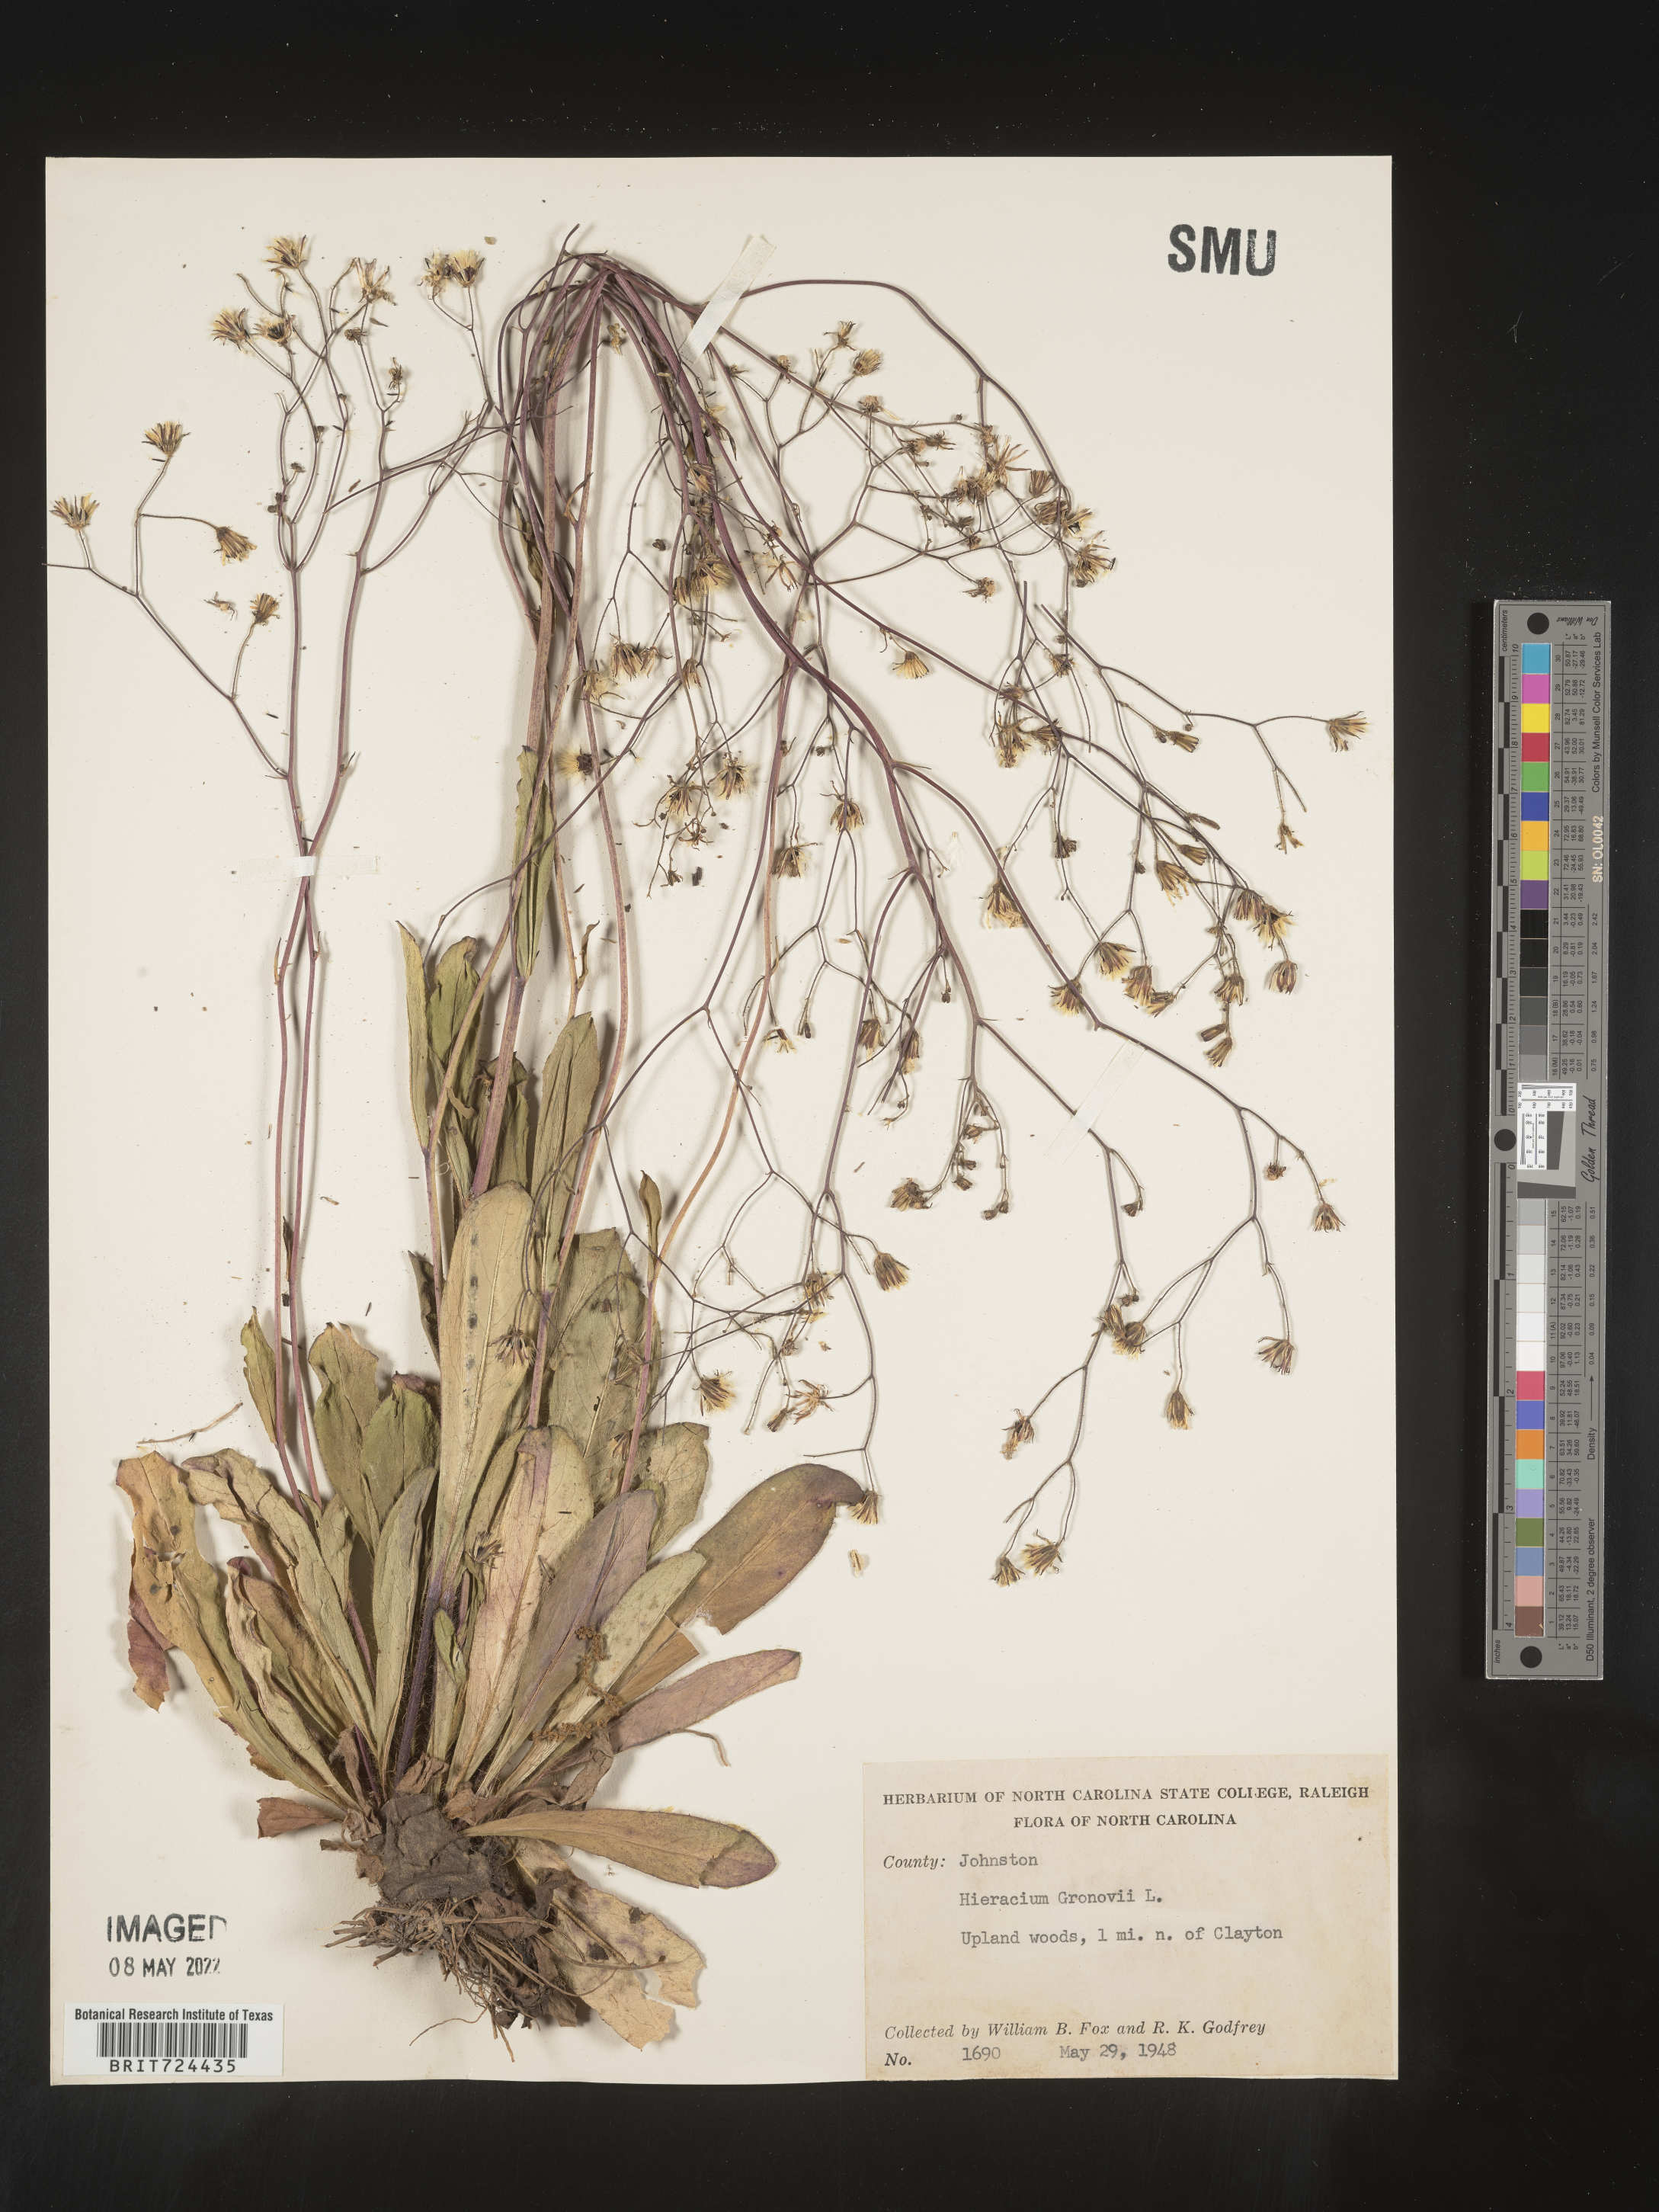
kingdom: Plantae
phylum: Tracheophyta
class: Magnoliopsida
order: Asterales
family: Asteraceae
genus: Hieracium
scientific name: Hieracium gronovii
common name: Beaked hawkweed
